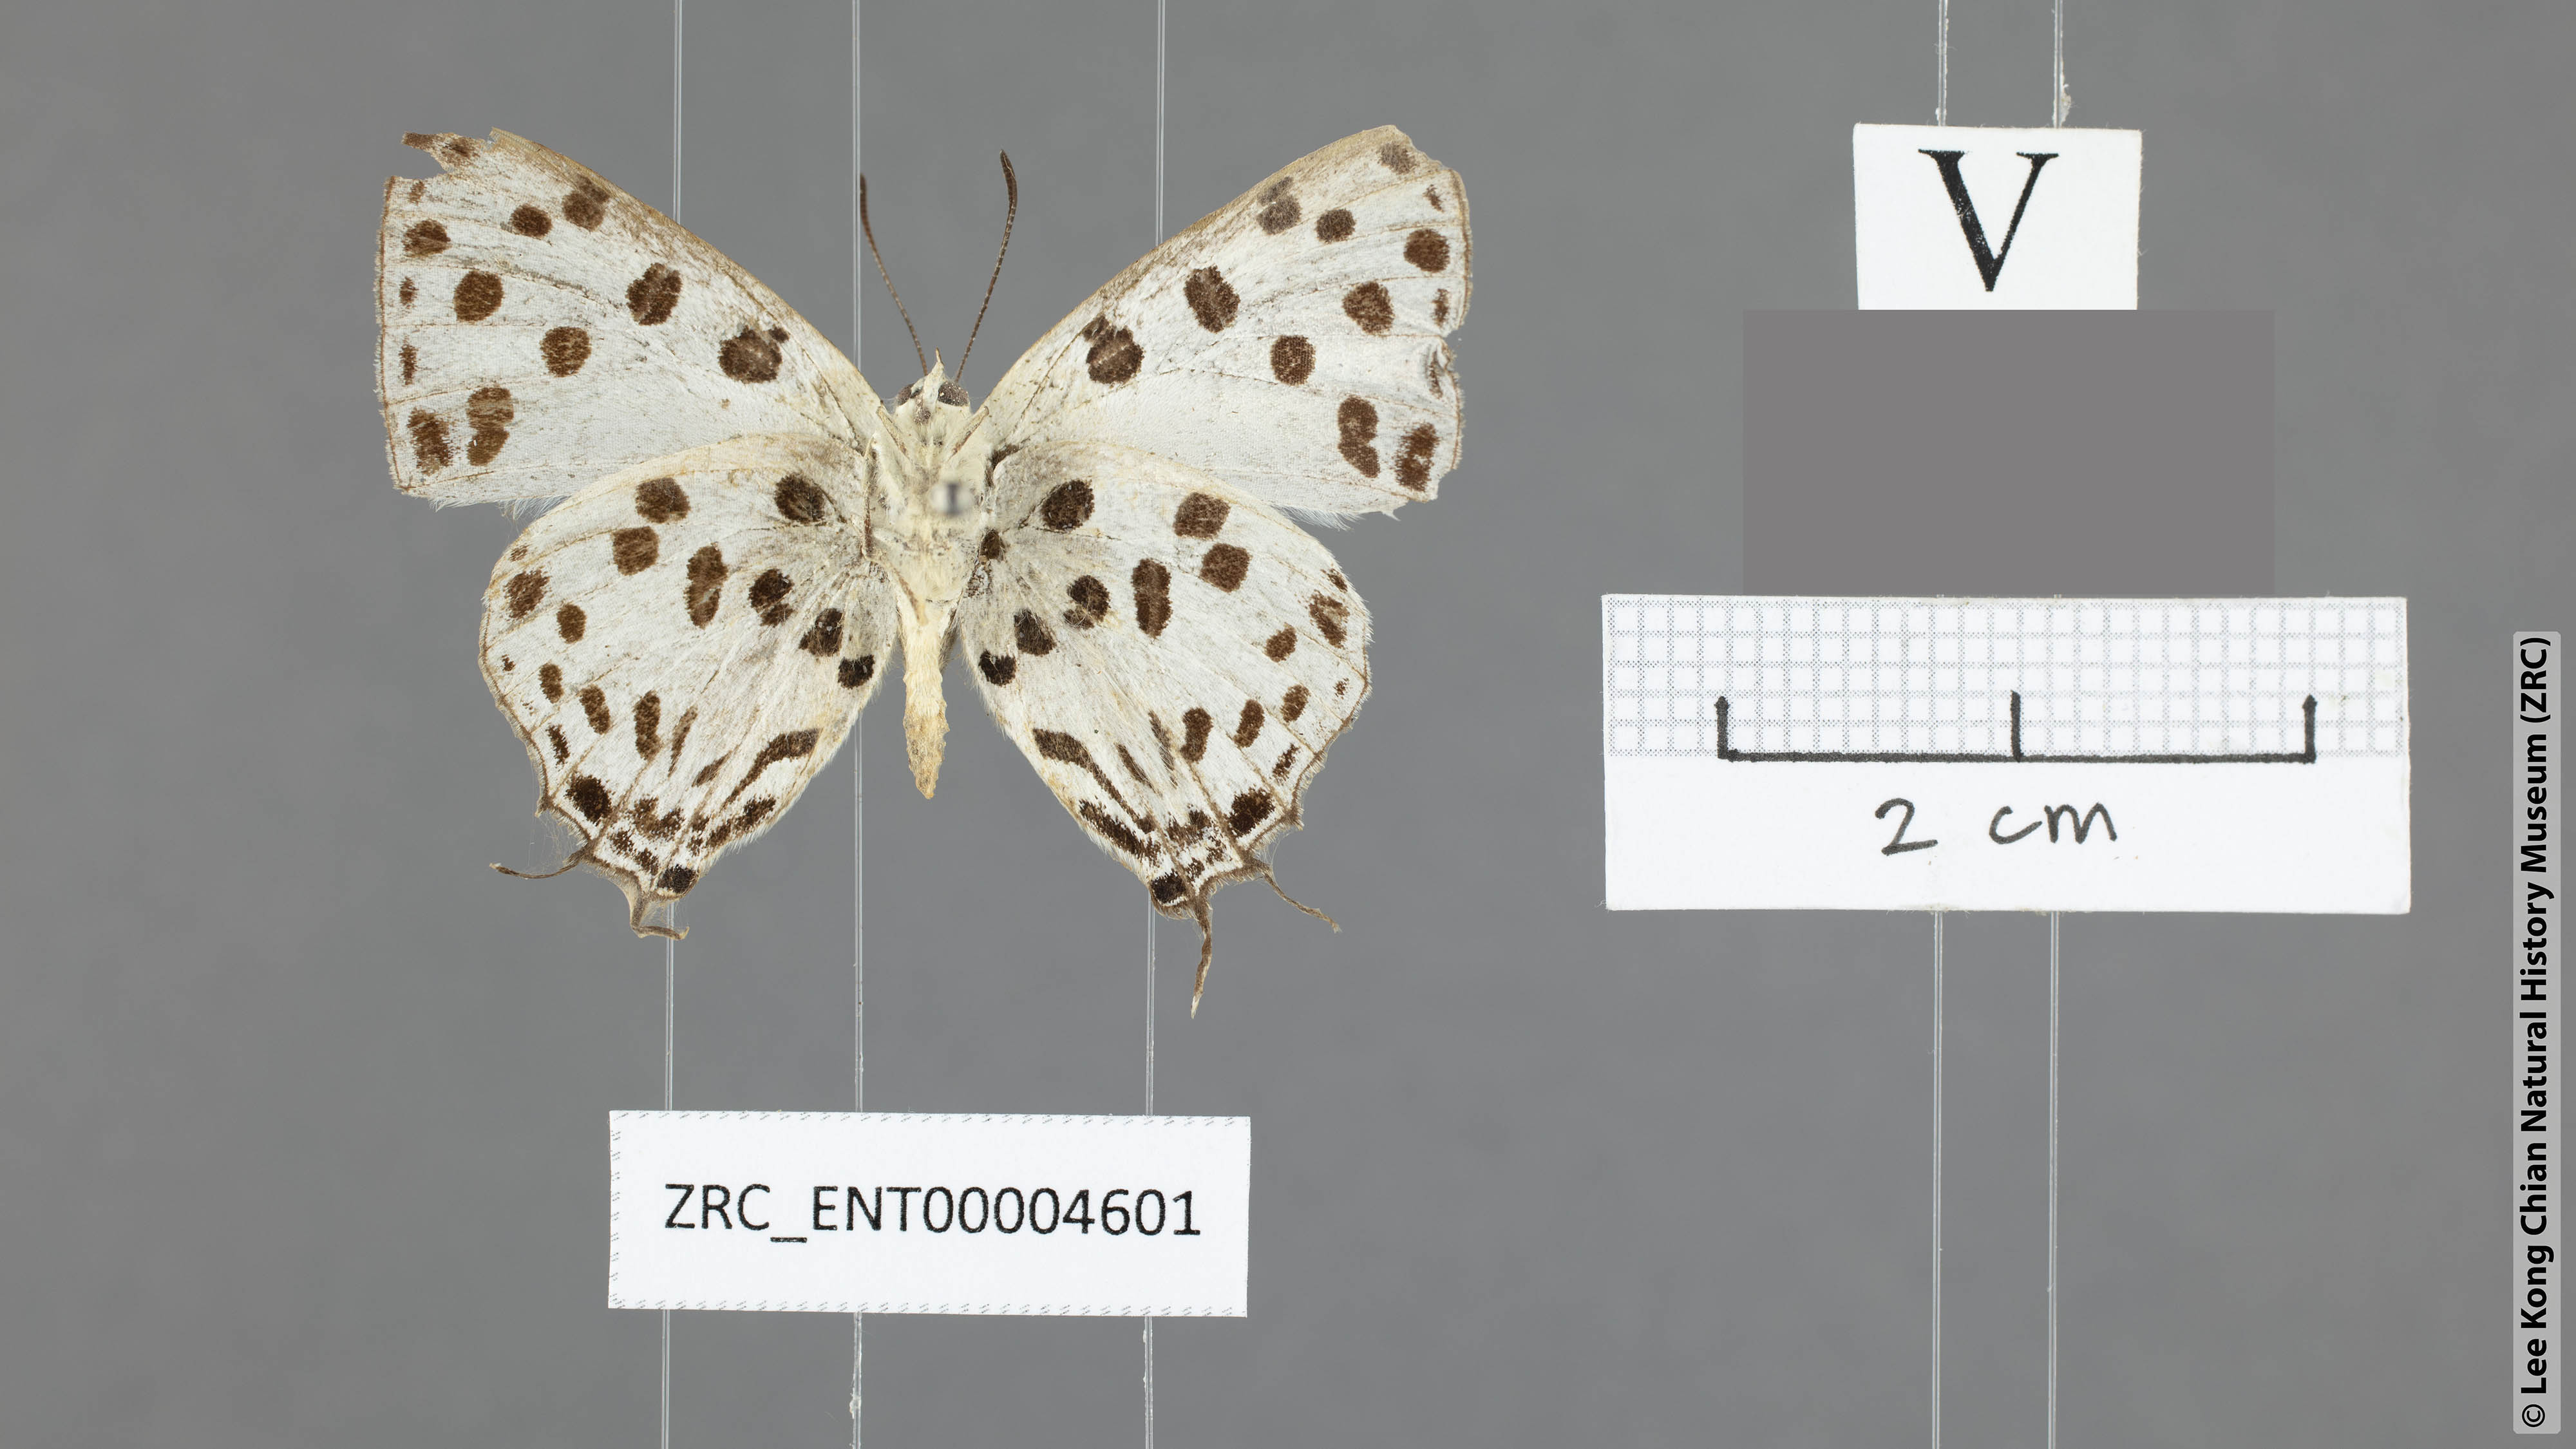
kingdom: Animalia
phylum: Arthropoda
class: Insecta
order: Lepidoptera
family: Lycaenidae
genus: Tajuria
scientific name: Tajuria maculatus
